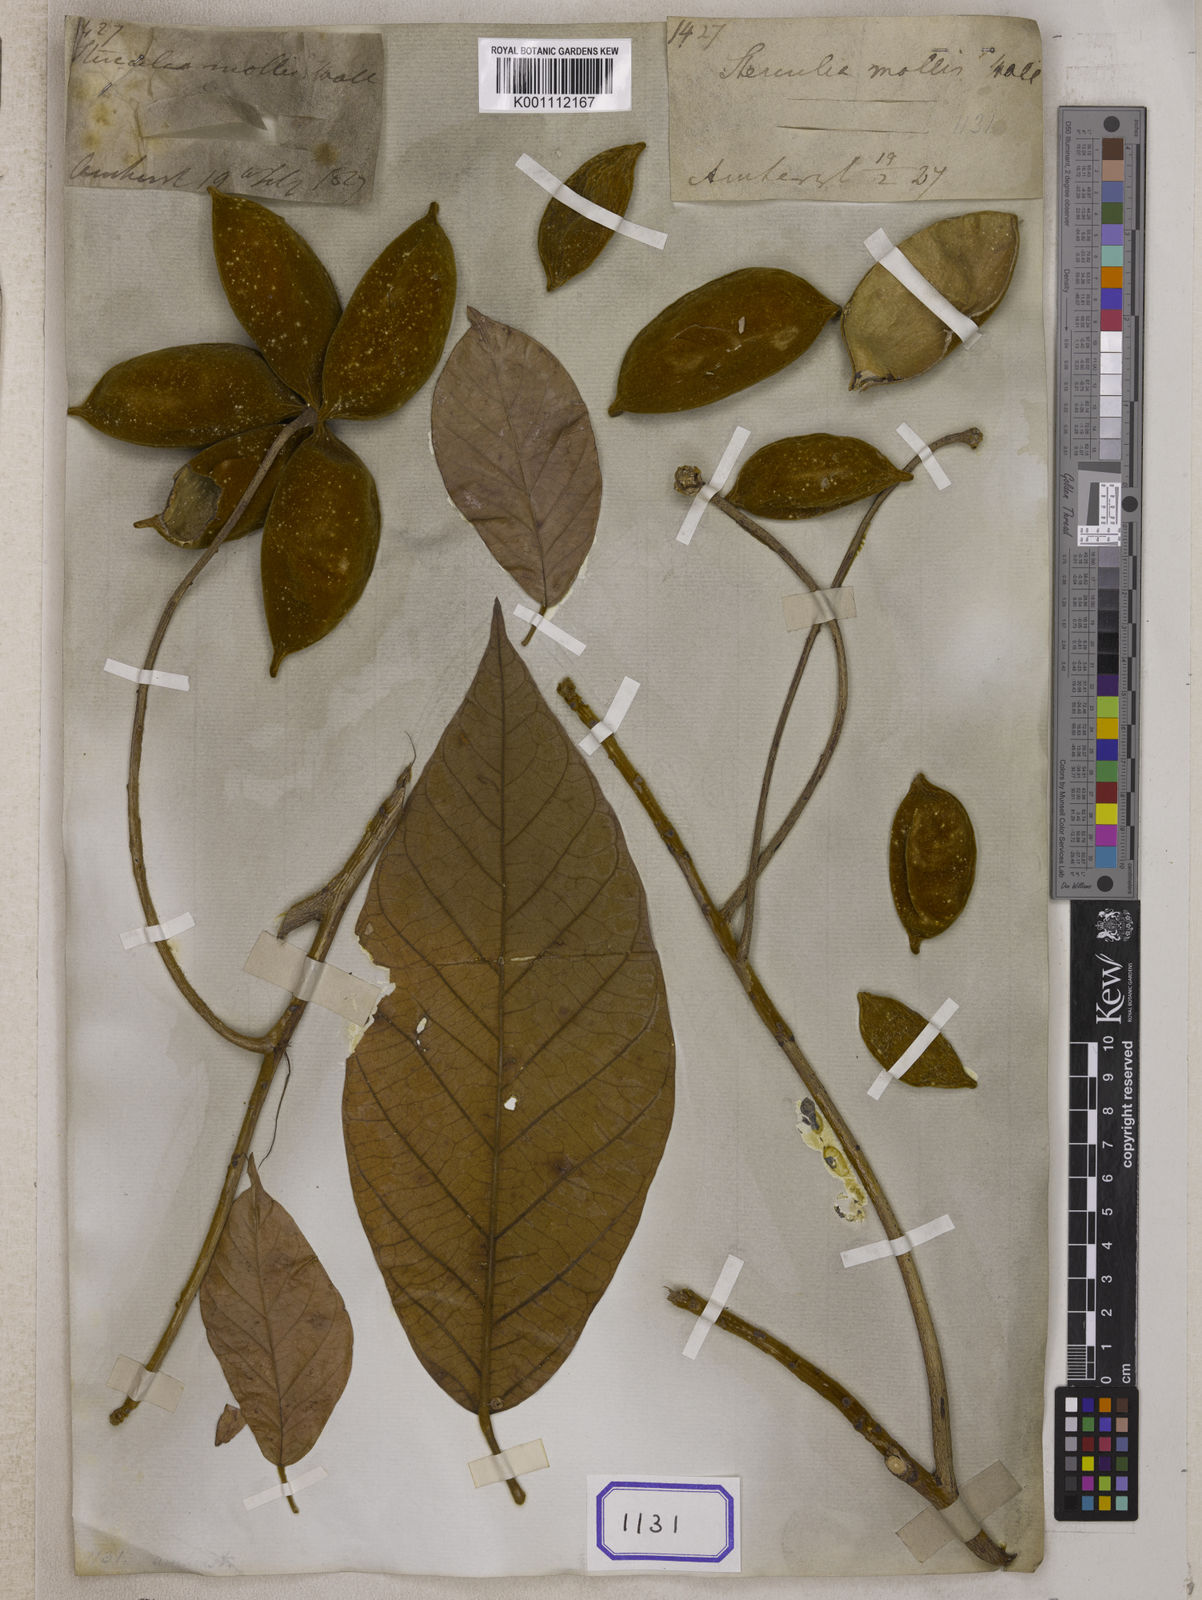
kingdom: Plantae
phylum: Tracheophyta
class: Magnoliopsida
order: Malvales
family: Malvaceae
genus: Sterculia
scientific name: Sterculia
